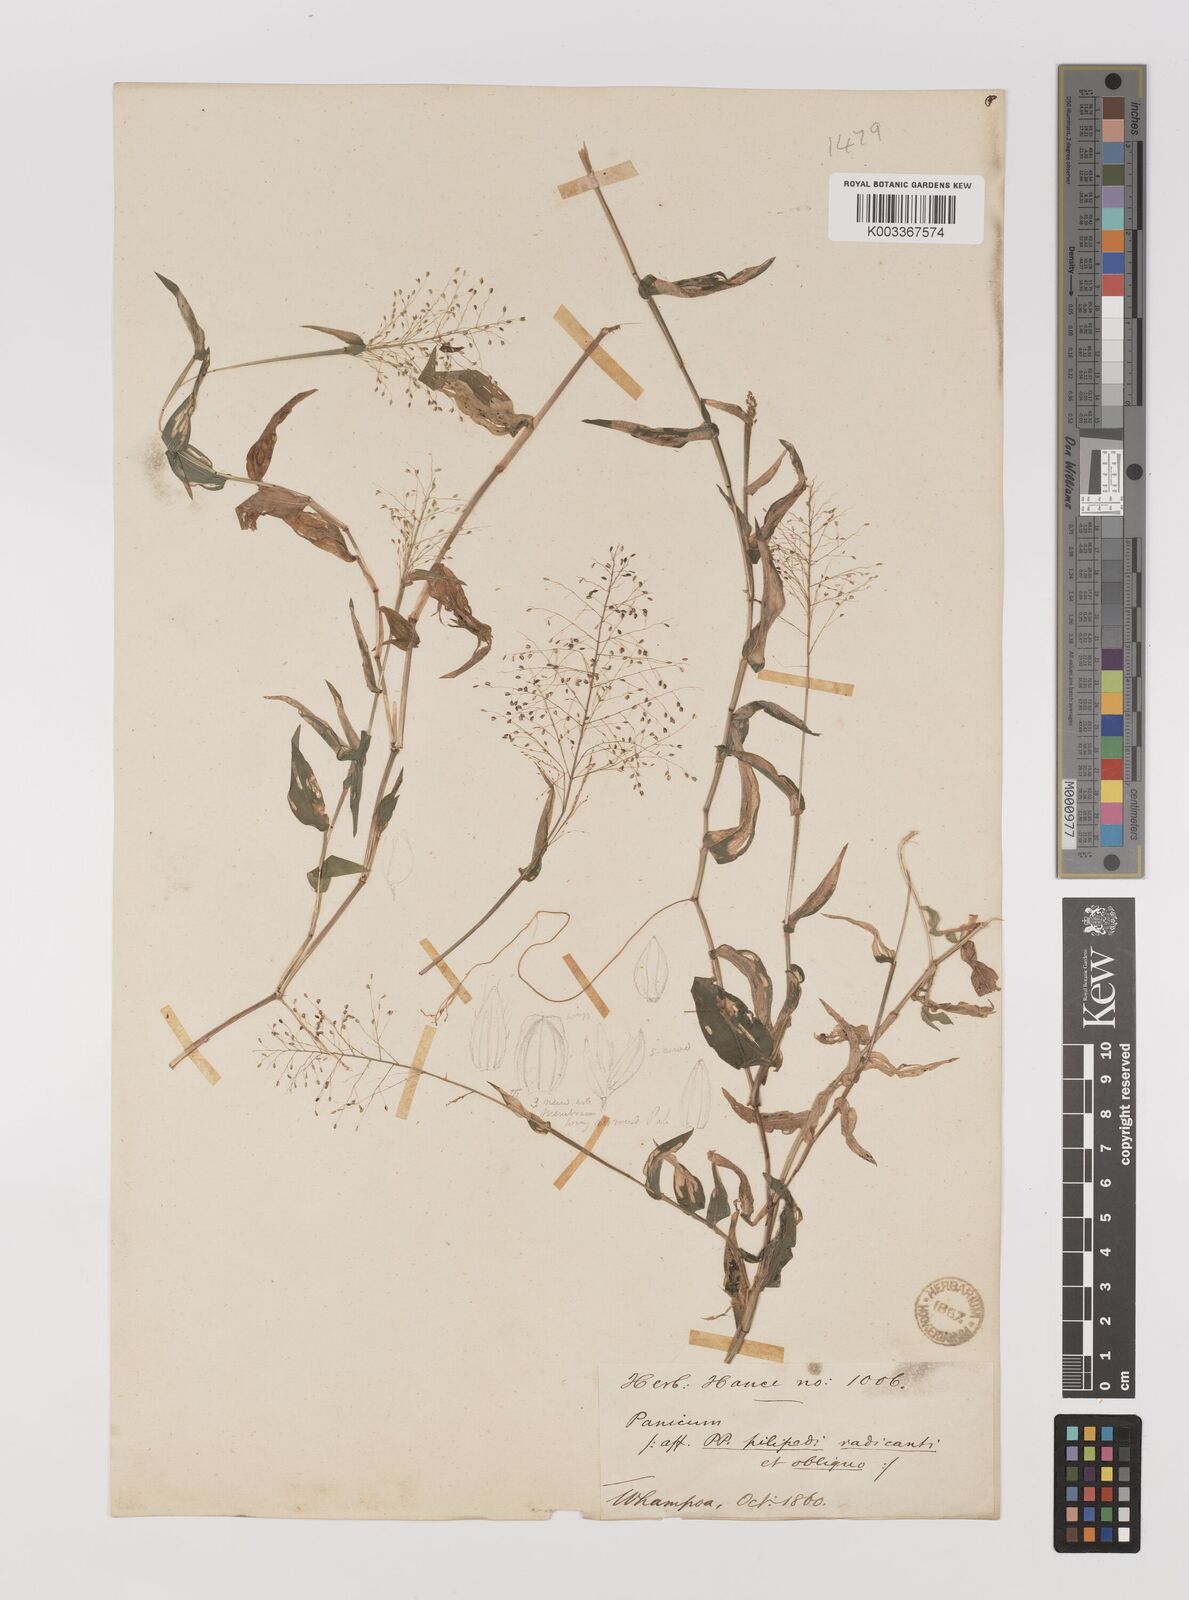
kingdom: Plantae
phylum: Tracheophyta
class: Liliopsida
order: Poales
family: Poaceae
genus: Panicum
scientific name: Panicum brevifolium
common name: Shortleaf panic grass
